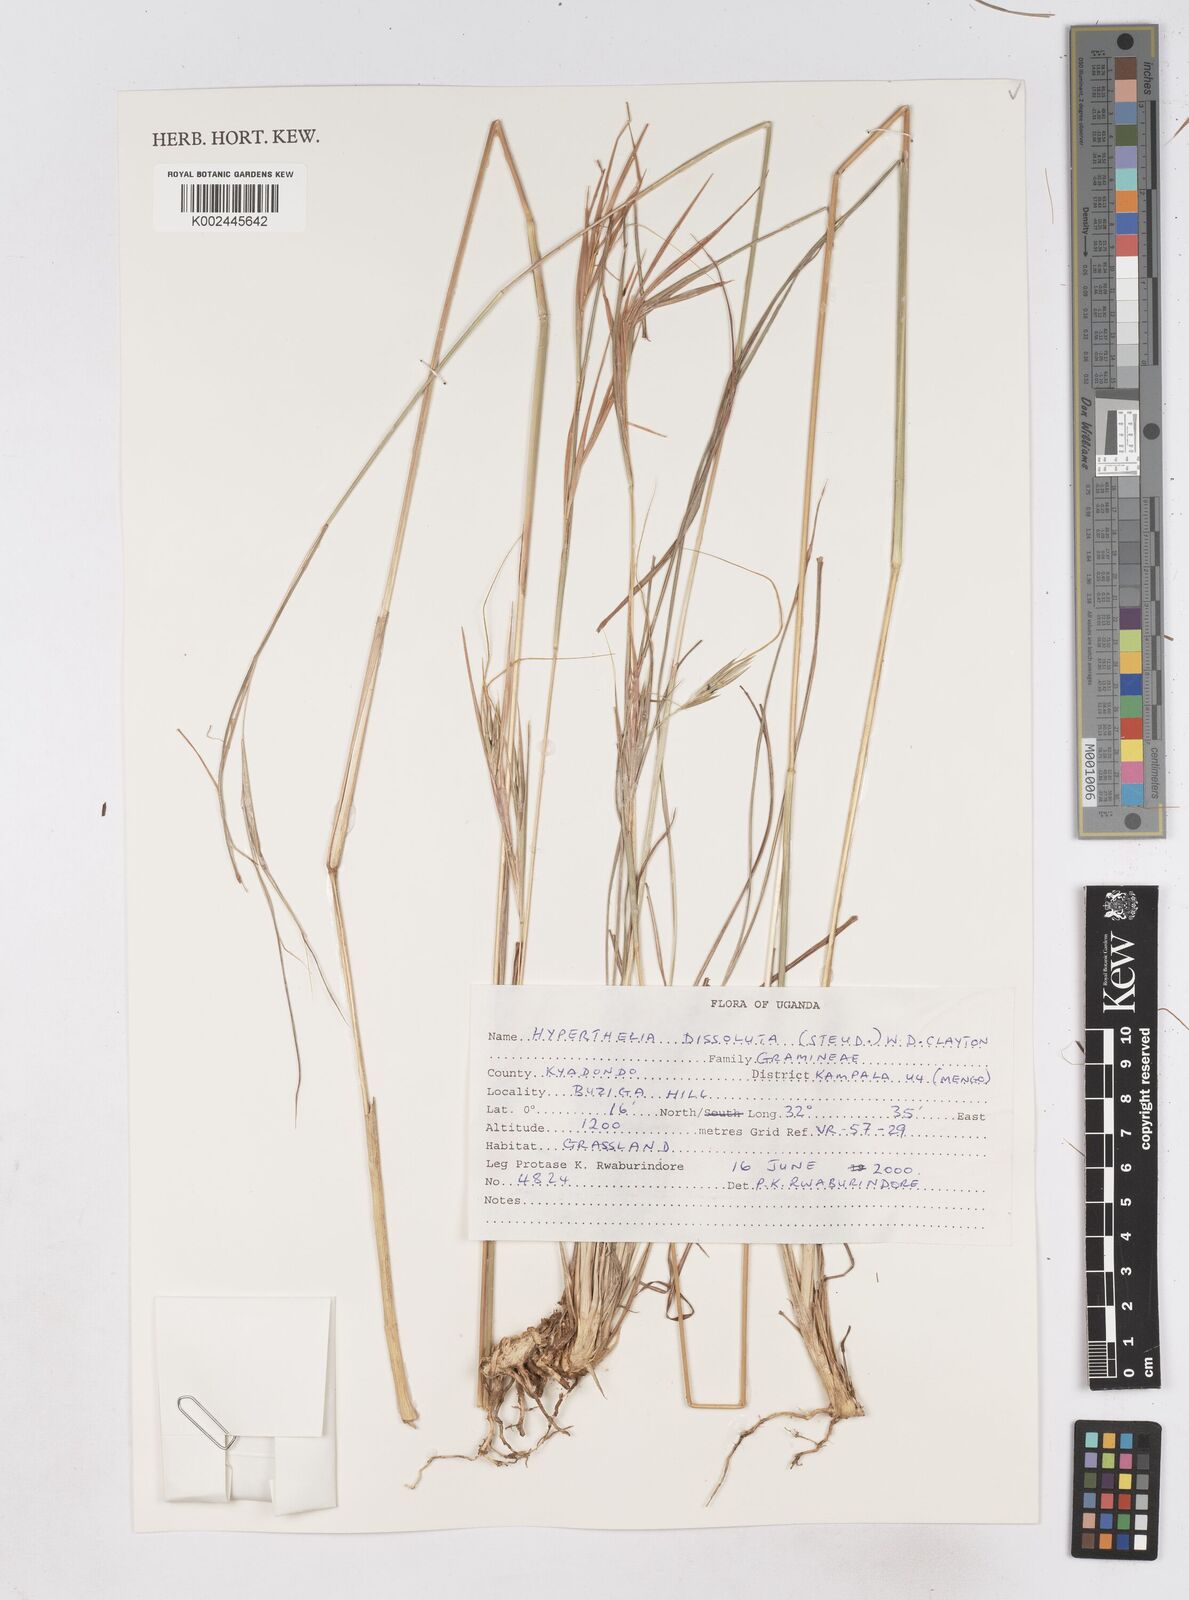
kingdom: Plantae
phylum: Tracheophyta
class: Liliopsida
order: Poales
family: Poaceae
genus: Hyperthelia
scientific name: Hyperthelia dissoluta
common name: Yellow thatching grass
